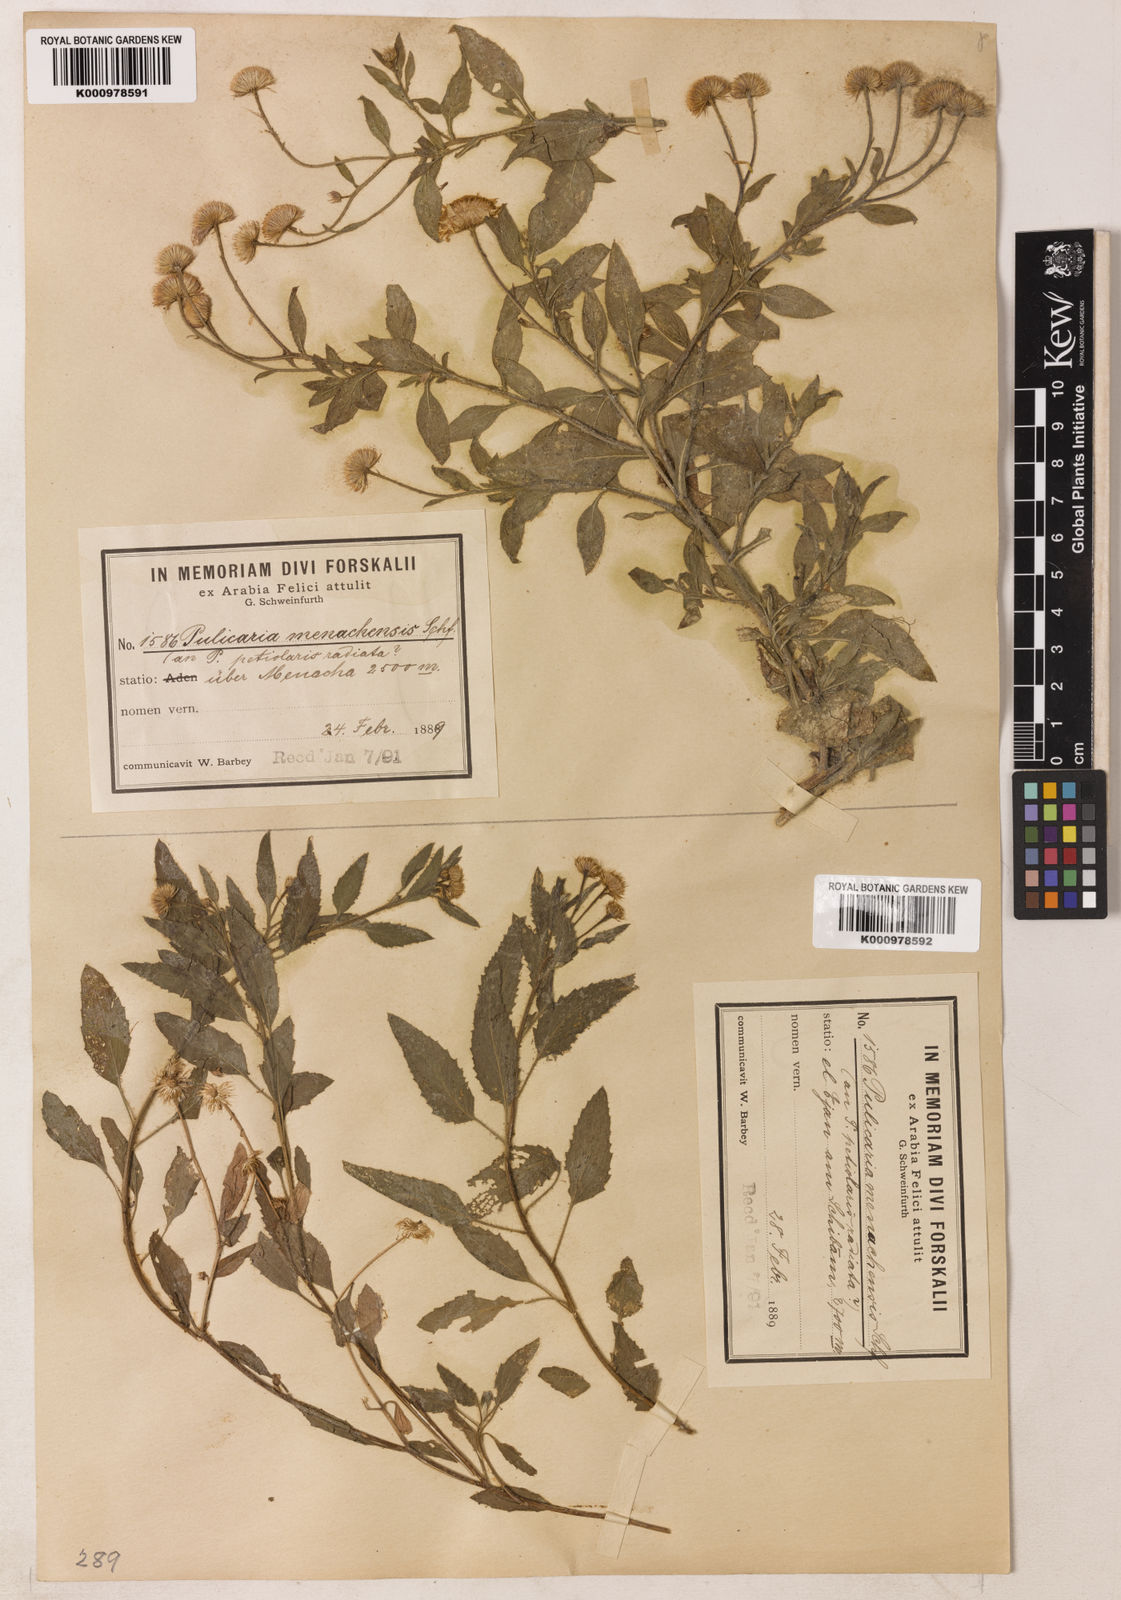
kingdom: Plantae
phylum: Tracheophyta
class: Magnoliopsida
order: Asterales
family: Asteraceae
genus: Pulicaria
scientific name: Pulicaria petiolaris
